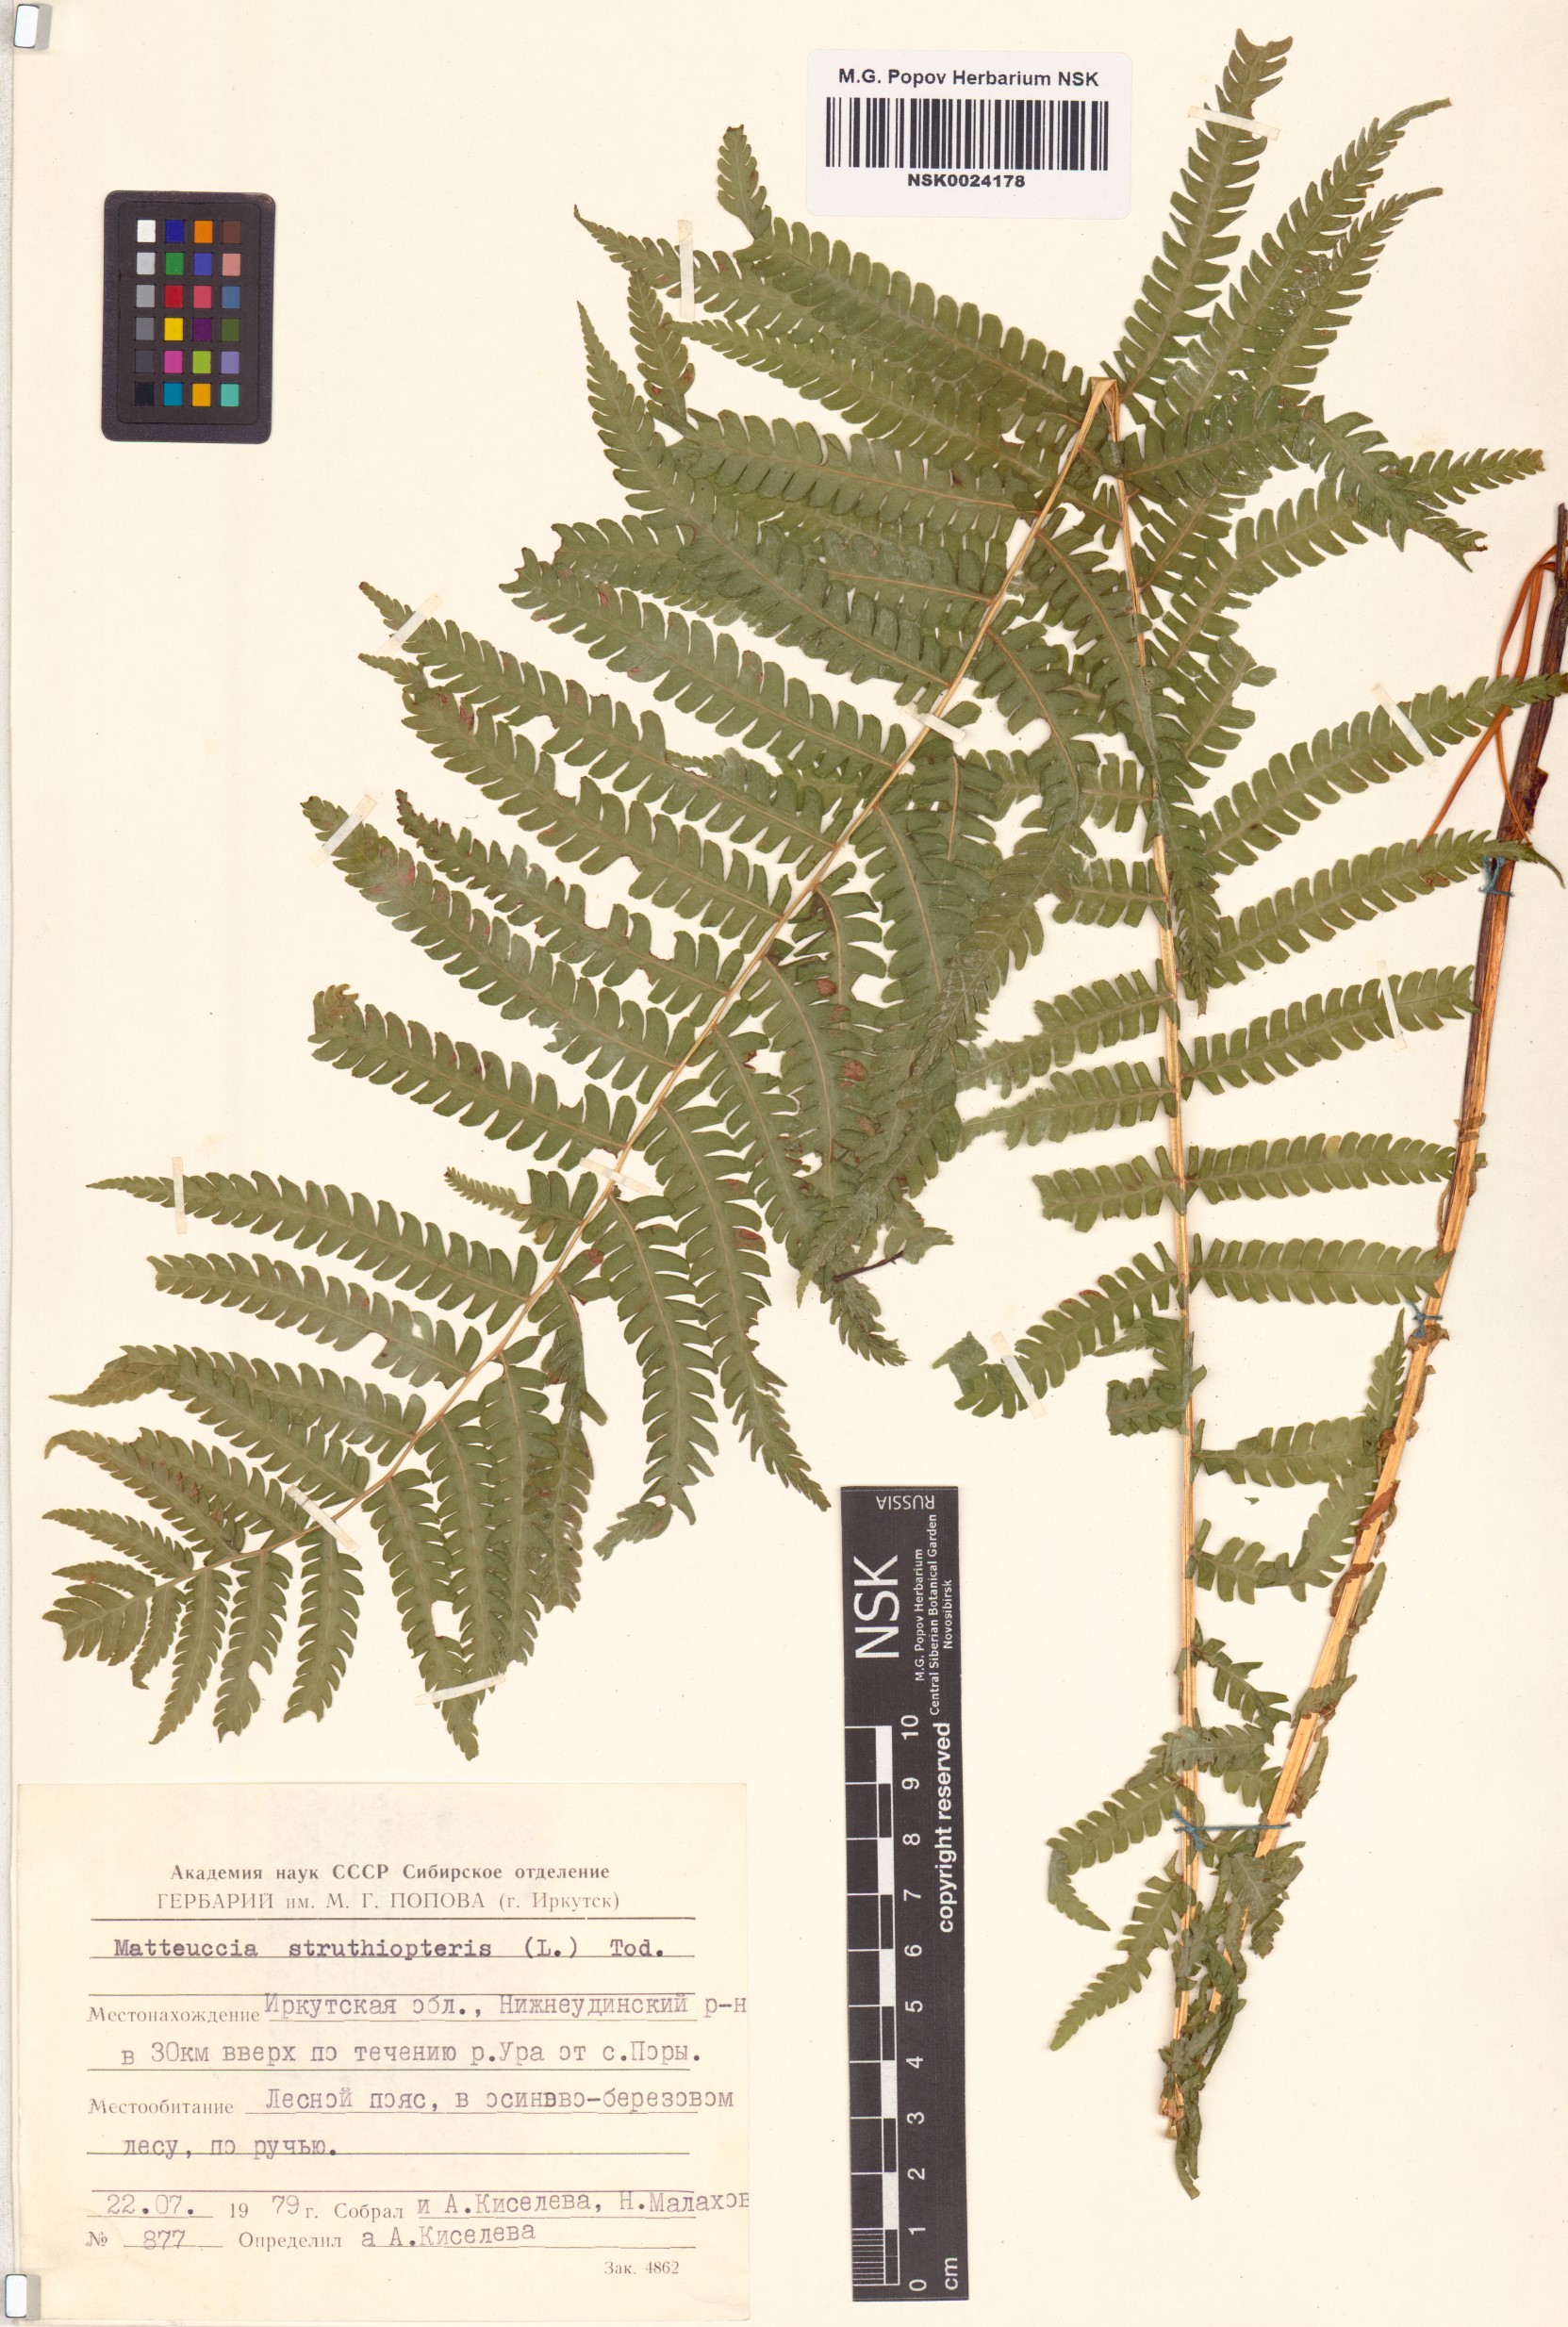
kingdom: Plantae
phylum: Tracheophyta
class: Polypodiopsida
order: Polypodiales
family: Onocleaceae
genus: Matteuccia
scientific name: Matteuccia struthiopteris
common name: Ostrich fern
